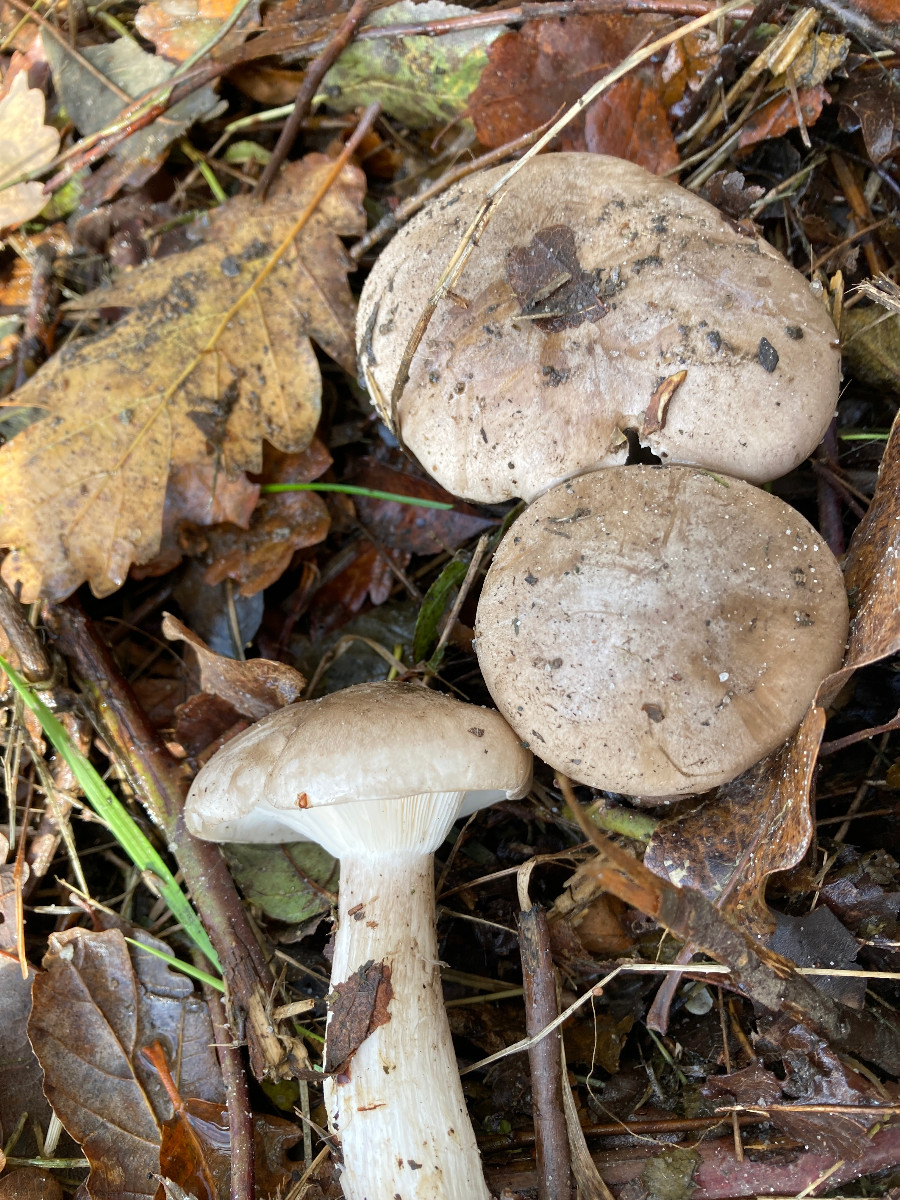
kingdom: Fungi
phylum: Basidiomycota
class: Agaricomycetes
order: Agaricales
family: Tricholomataceae
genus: Clitocybe
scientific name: Clitocybe nebularis
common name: tåge-tragthat
